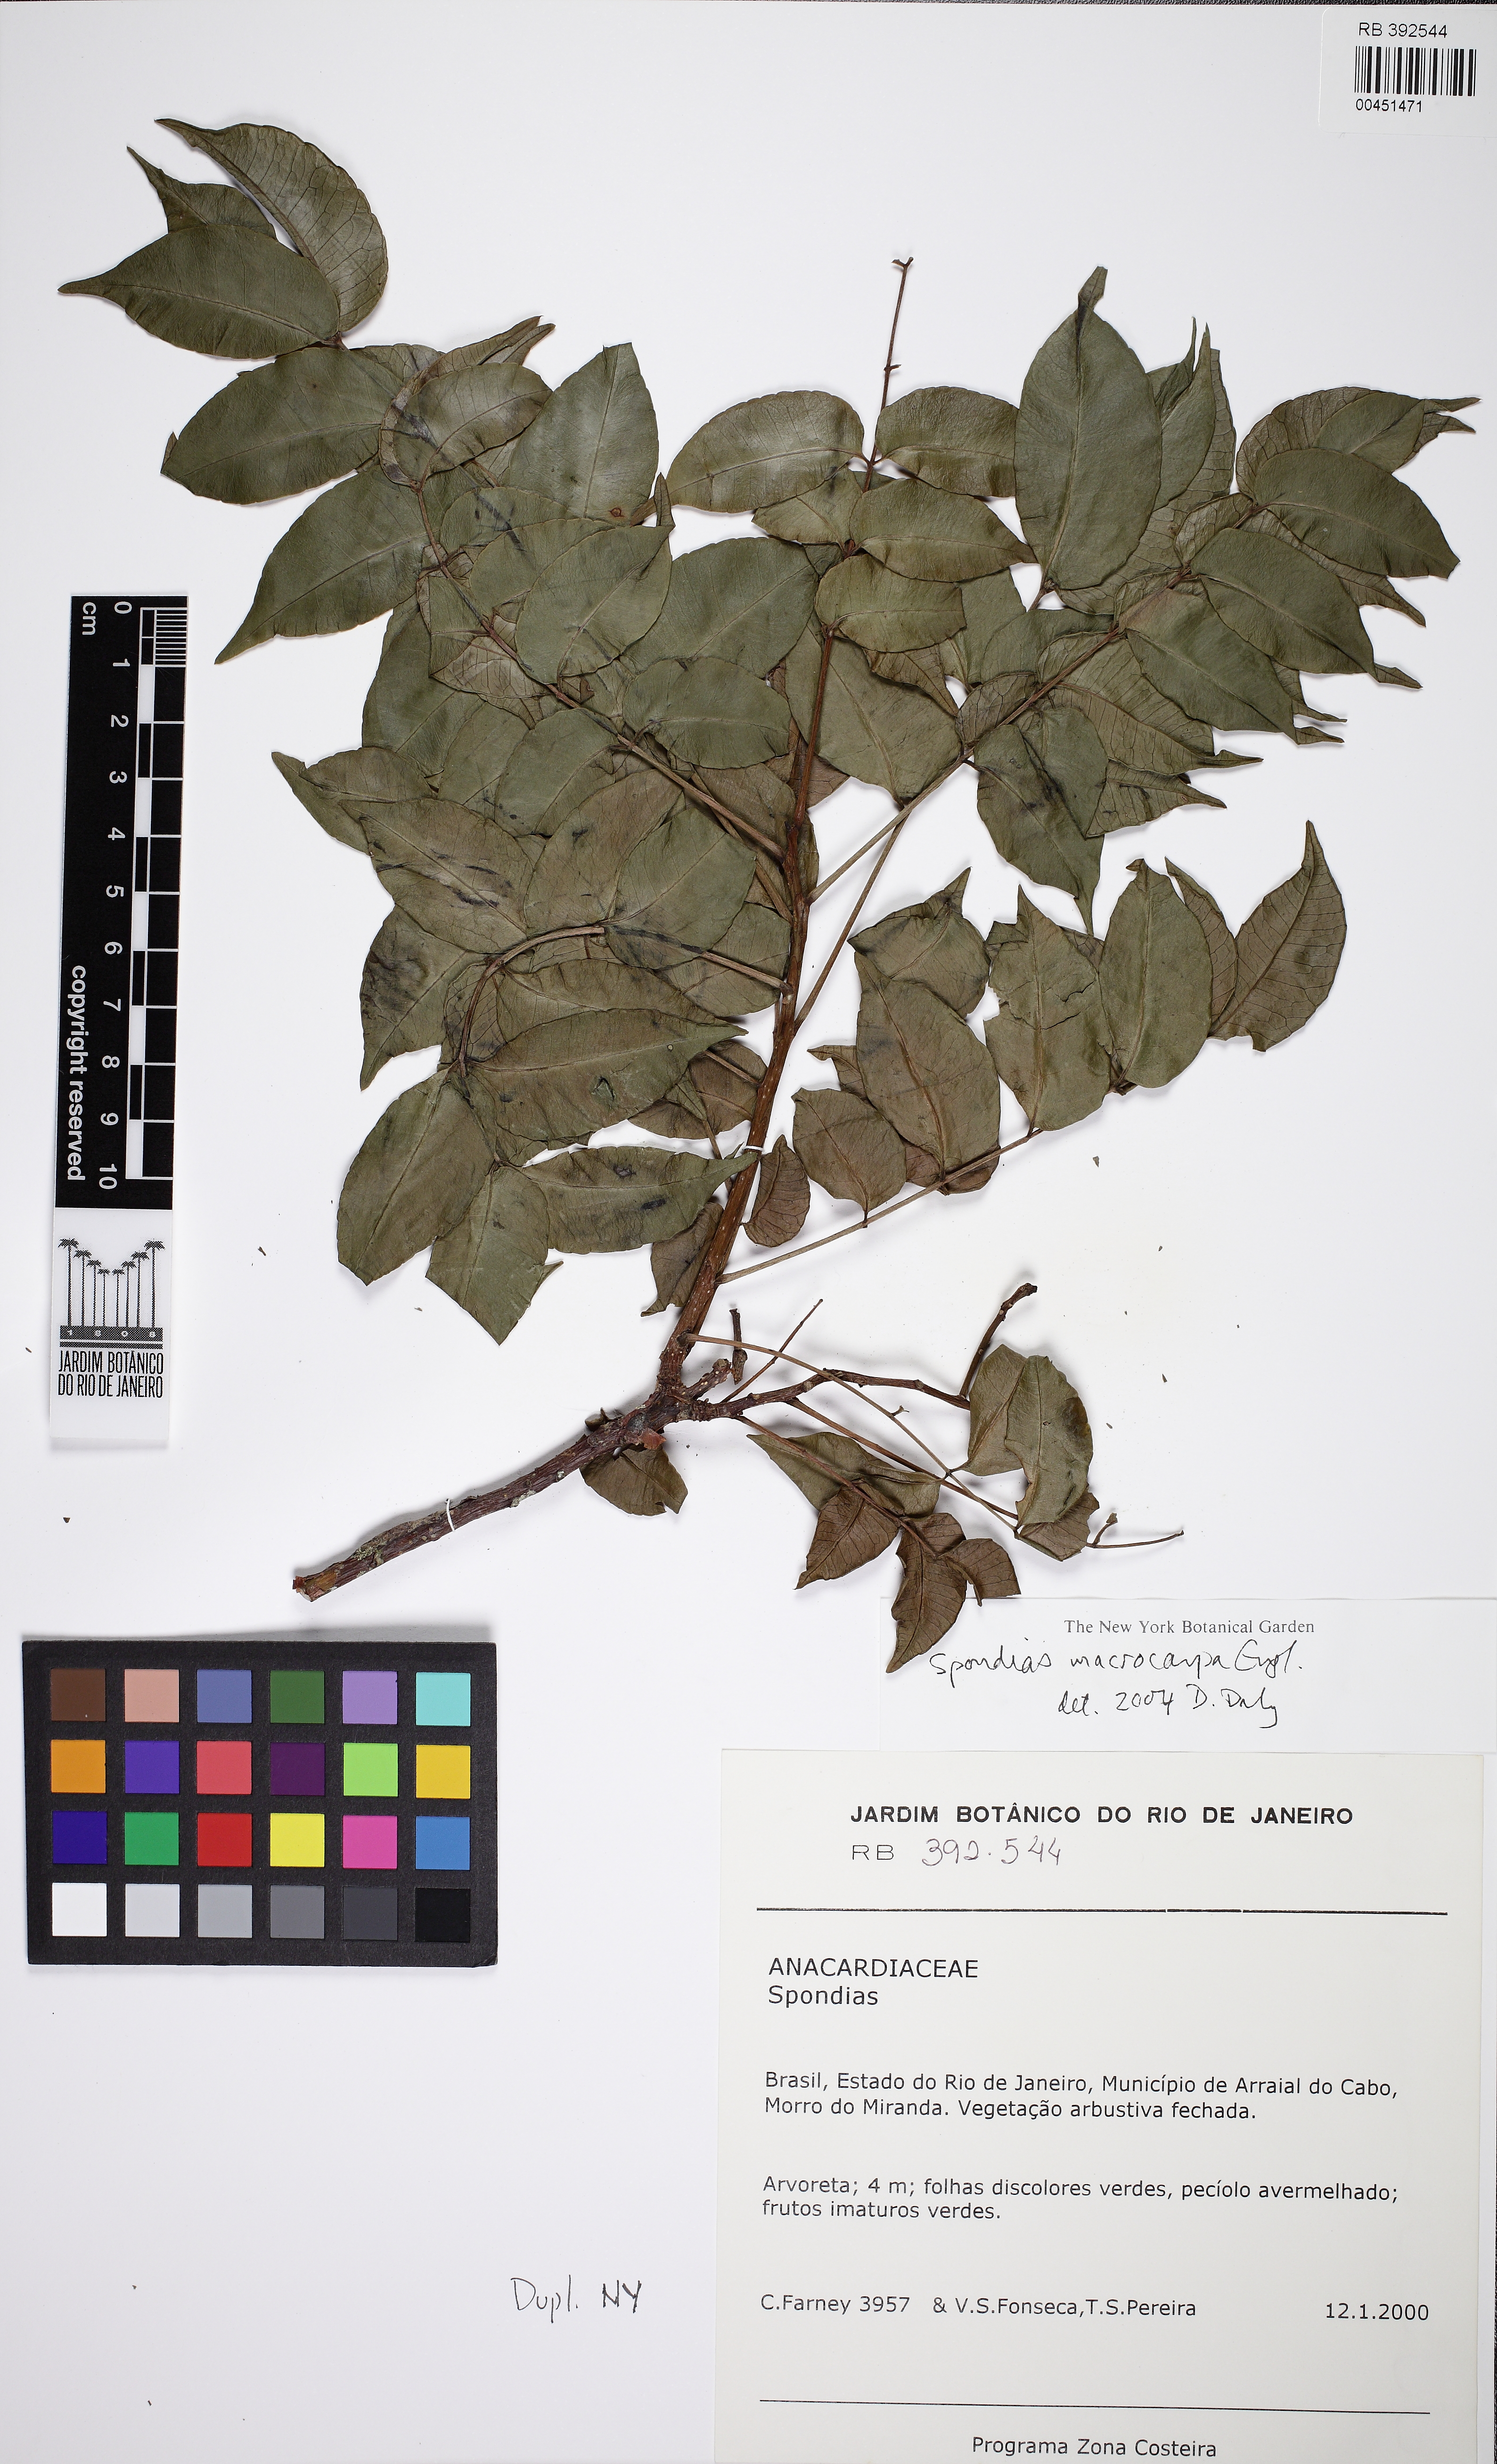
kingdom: Plantae
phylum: Tracheophyta
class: Magnoliopsida
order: Sapindales
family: Anacardiaceae
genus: Spondias
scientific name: Spondias
